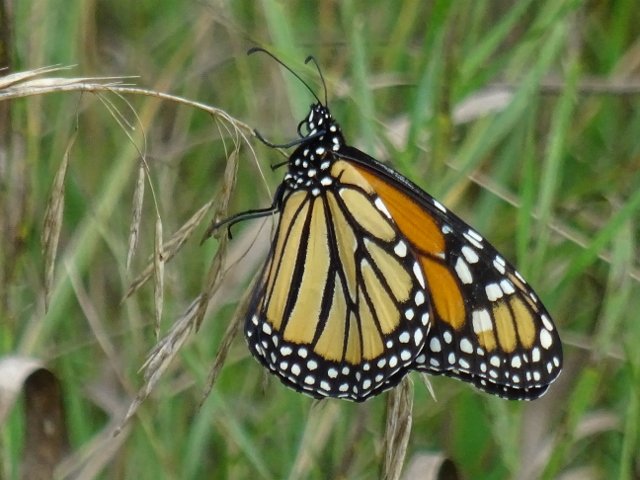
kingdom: Animalia
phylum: Arthropoda
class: Insecta
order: Lepidoptera
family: Nymphalidae
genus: Danaus
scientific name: Danaus plexippus
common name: Monarch
